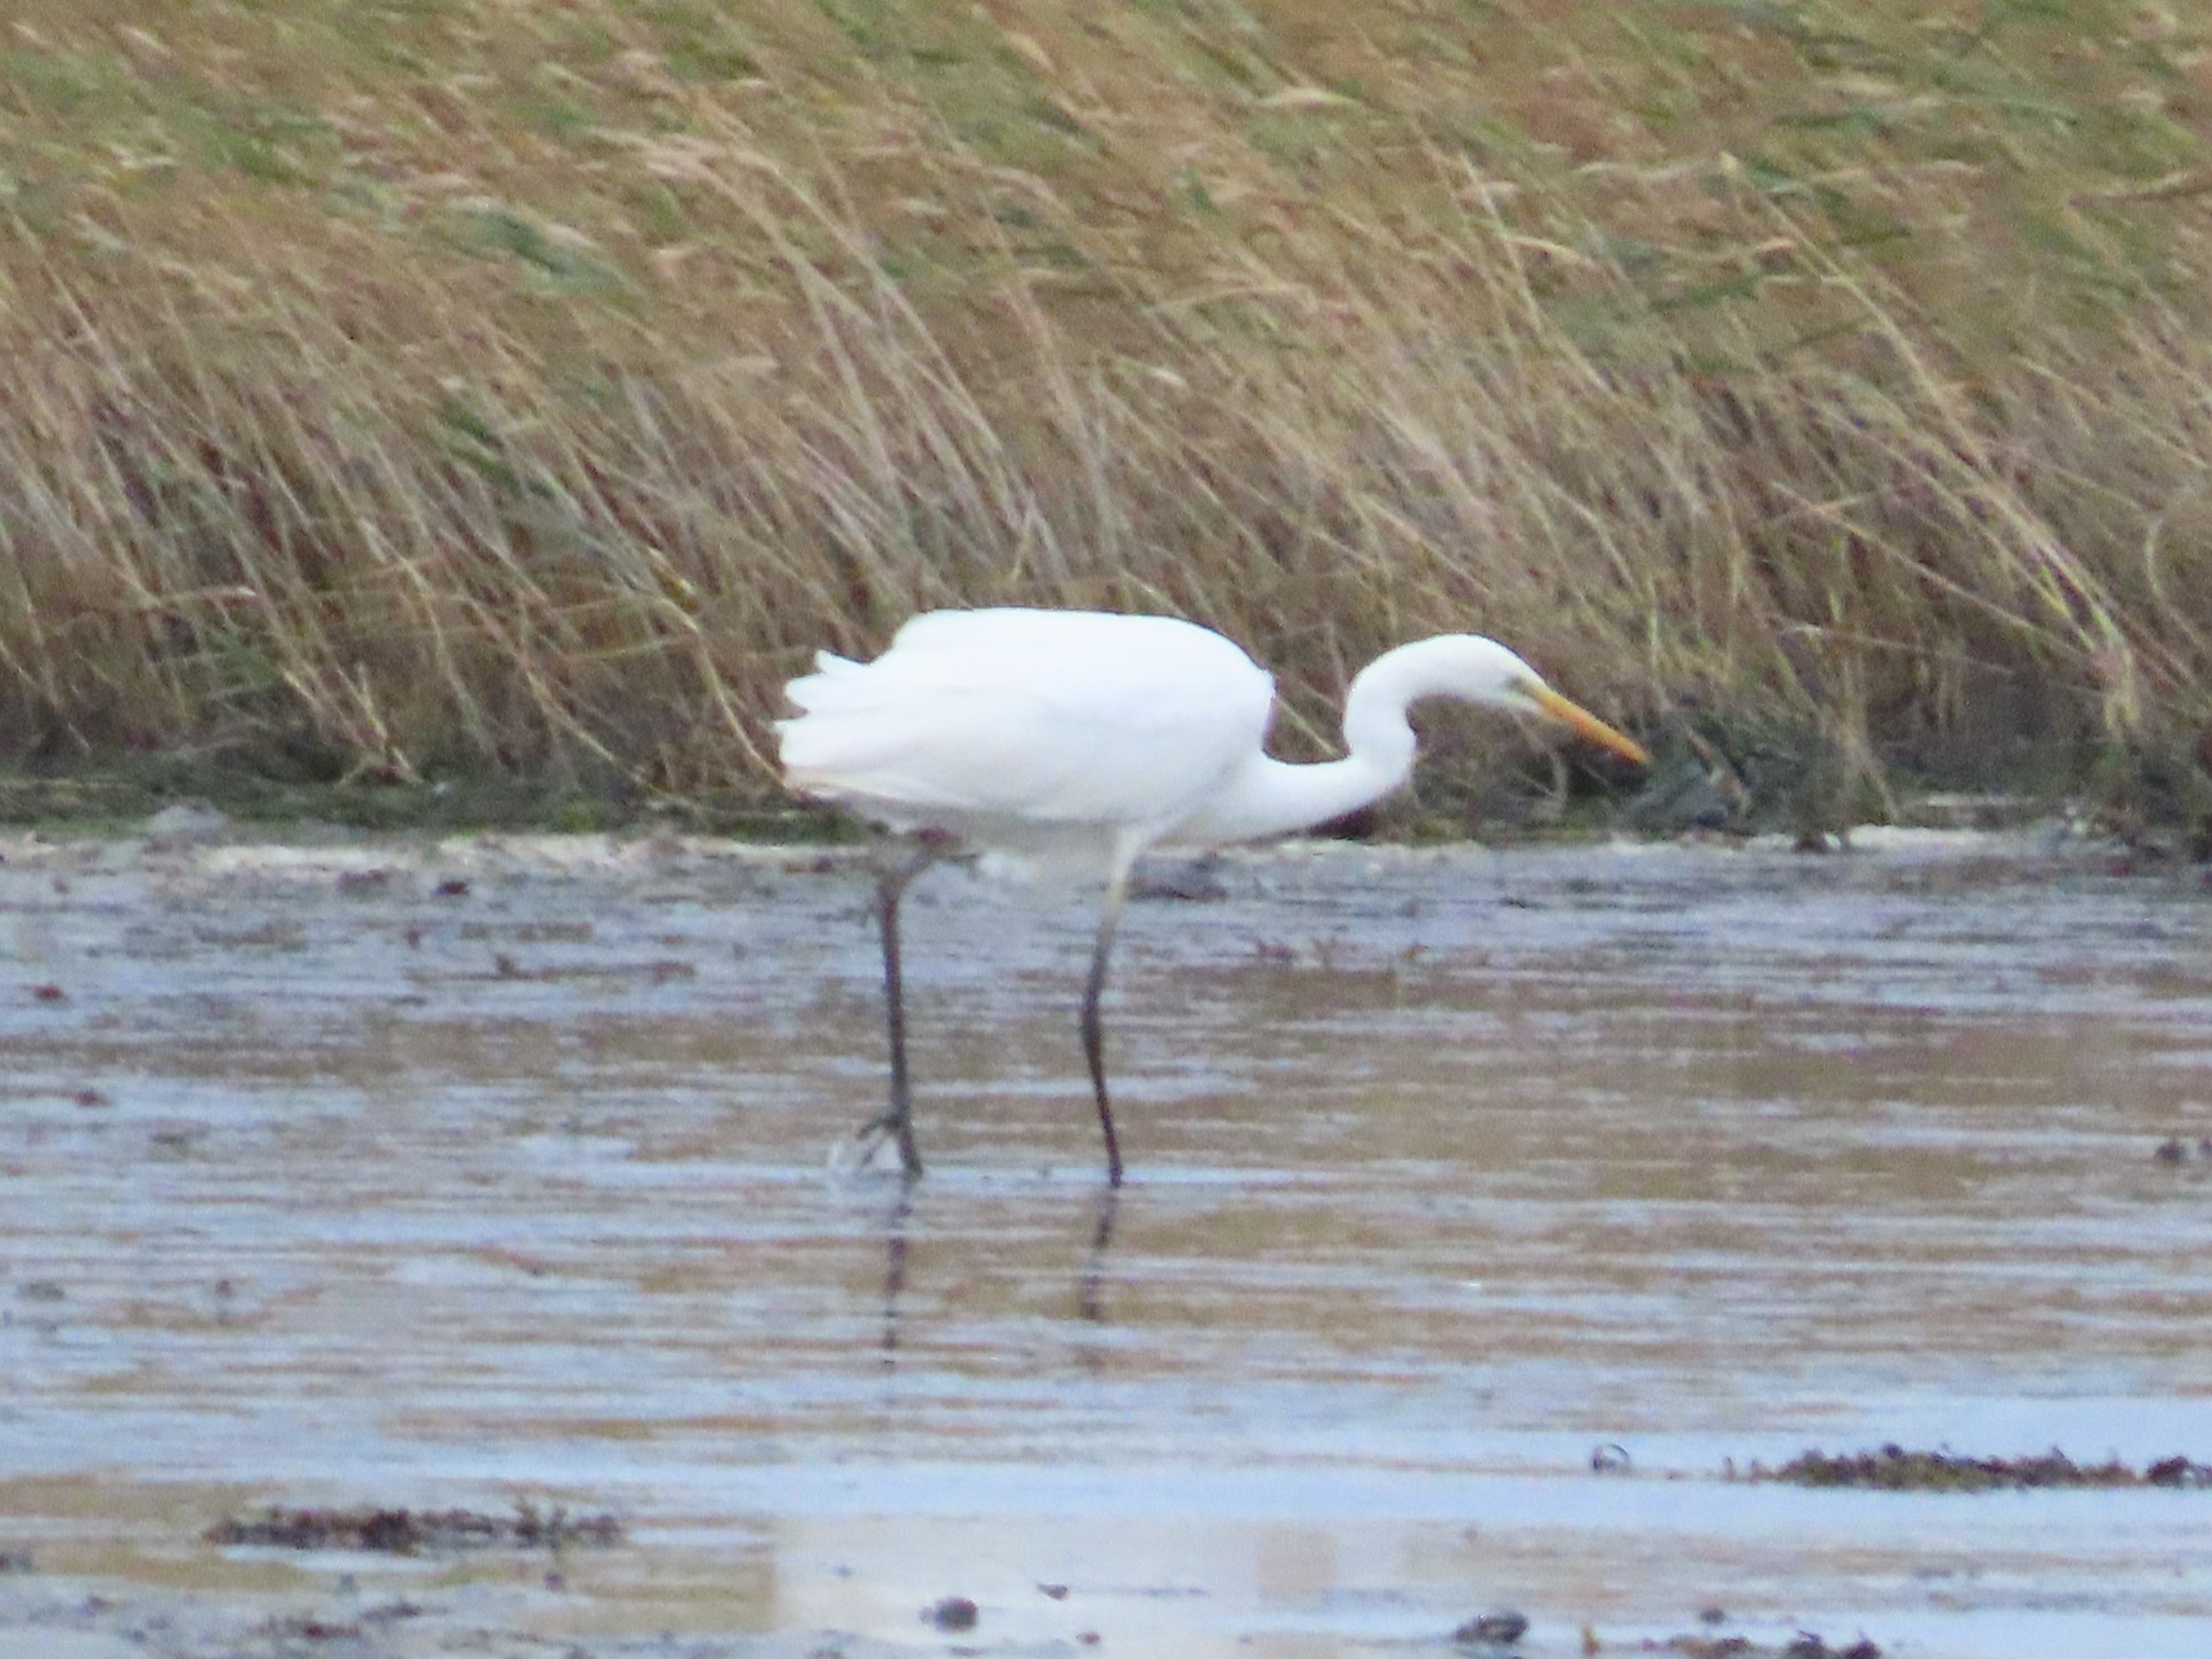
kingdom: Animalia
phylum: Chordata
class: Aves
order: Pelecaniformes
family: Ardeidae
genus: Ardea
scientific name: Ardea alba
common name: Sølvhejre
